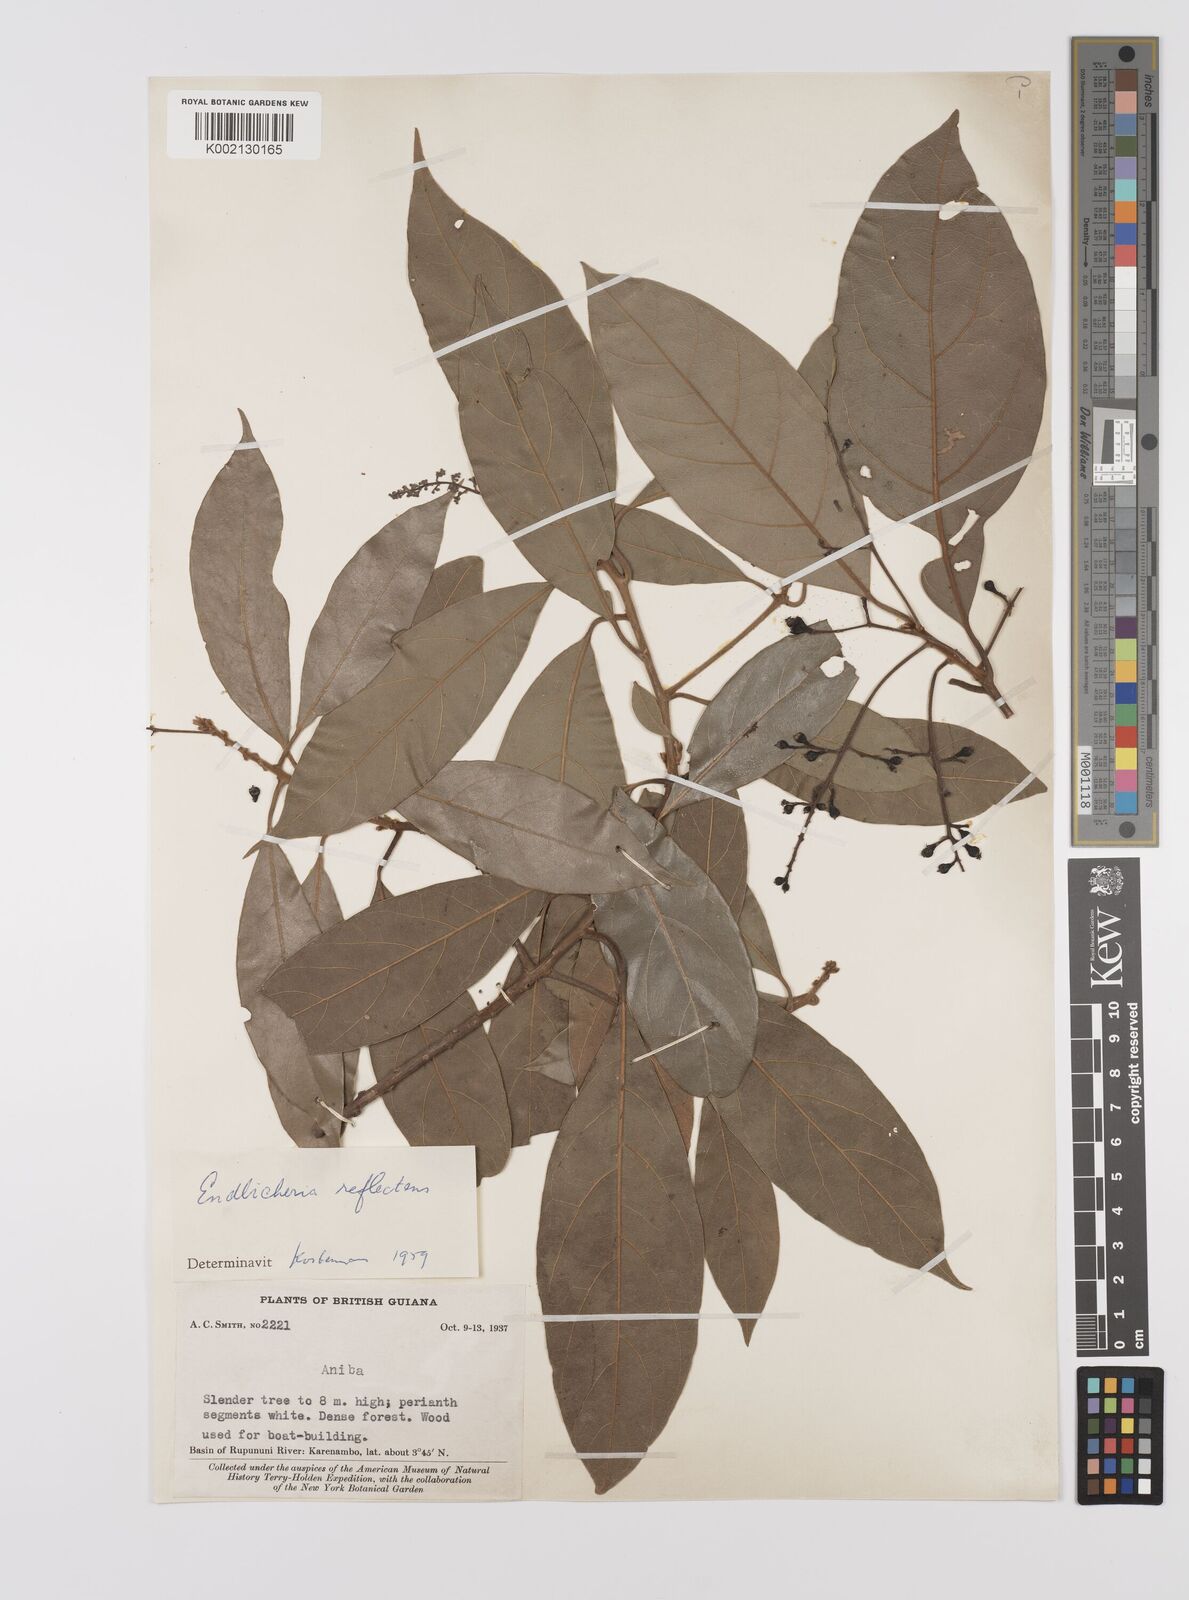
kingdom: Plantae
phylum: Tracheophyta
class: Magnoliopsida
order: Laurales
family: Lauraceae
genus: Endlicheria
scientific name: Endlicheria reflectens
